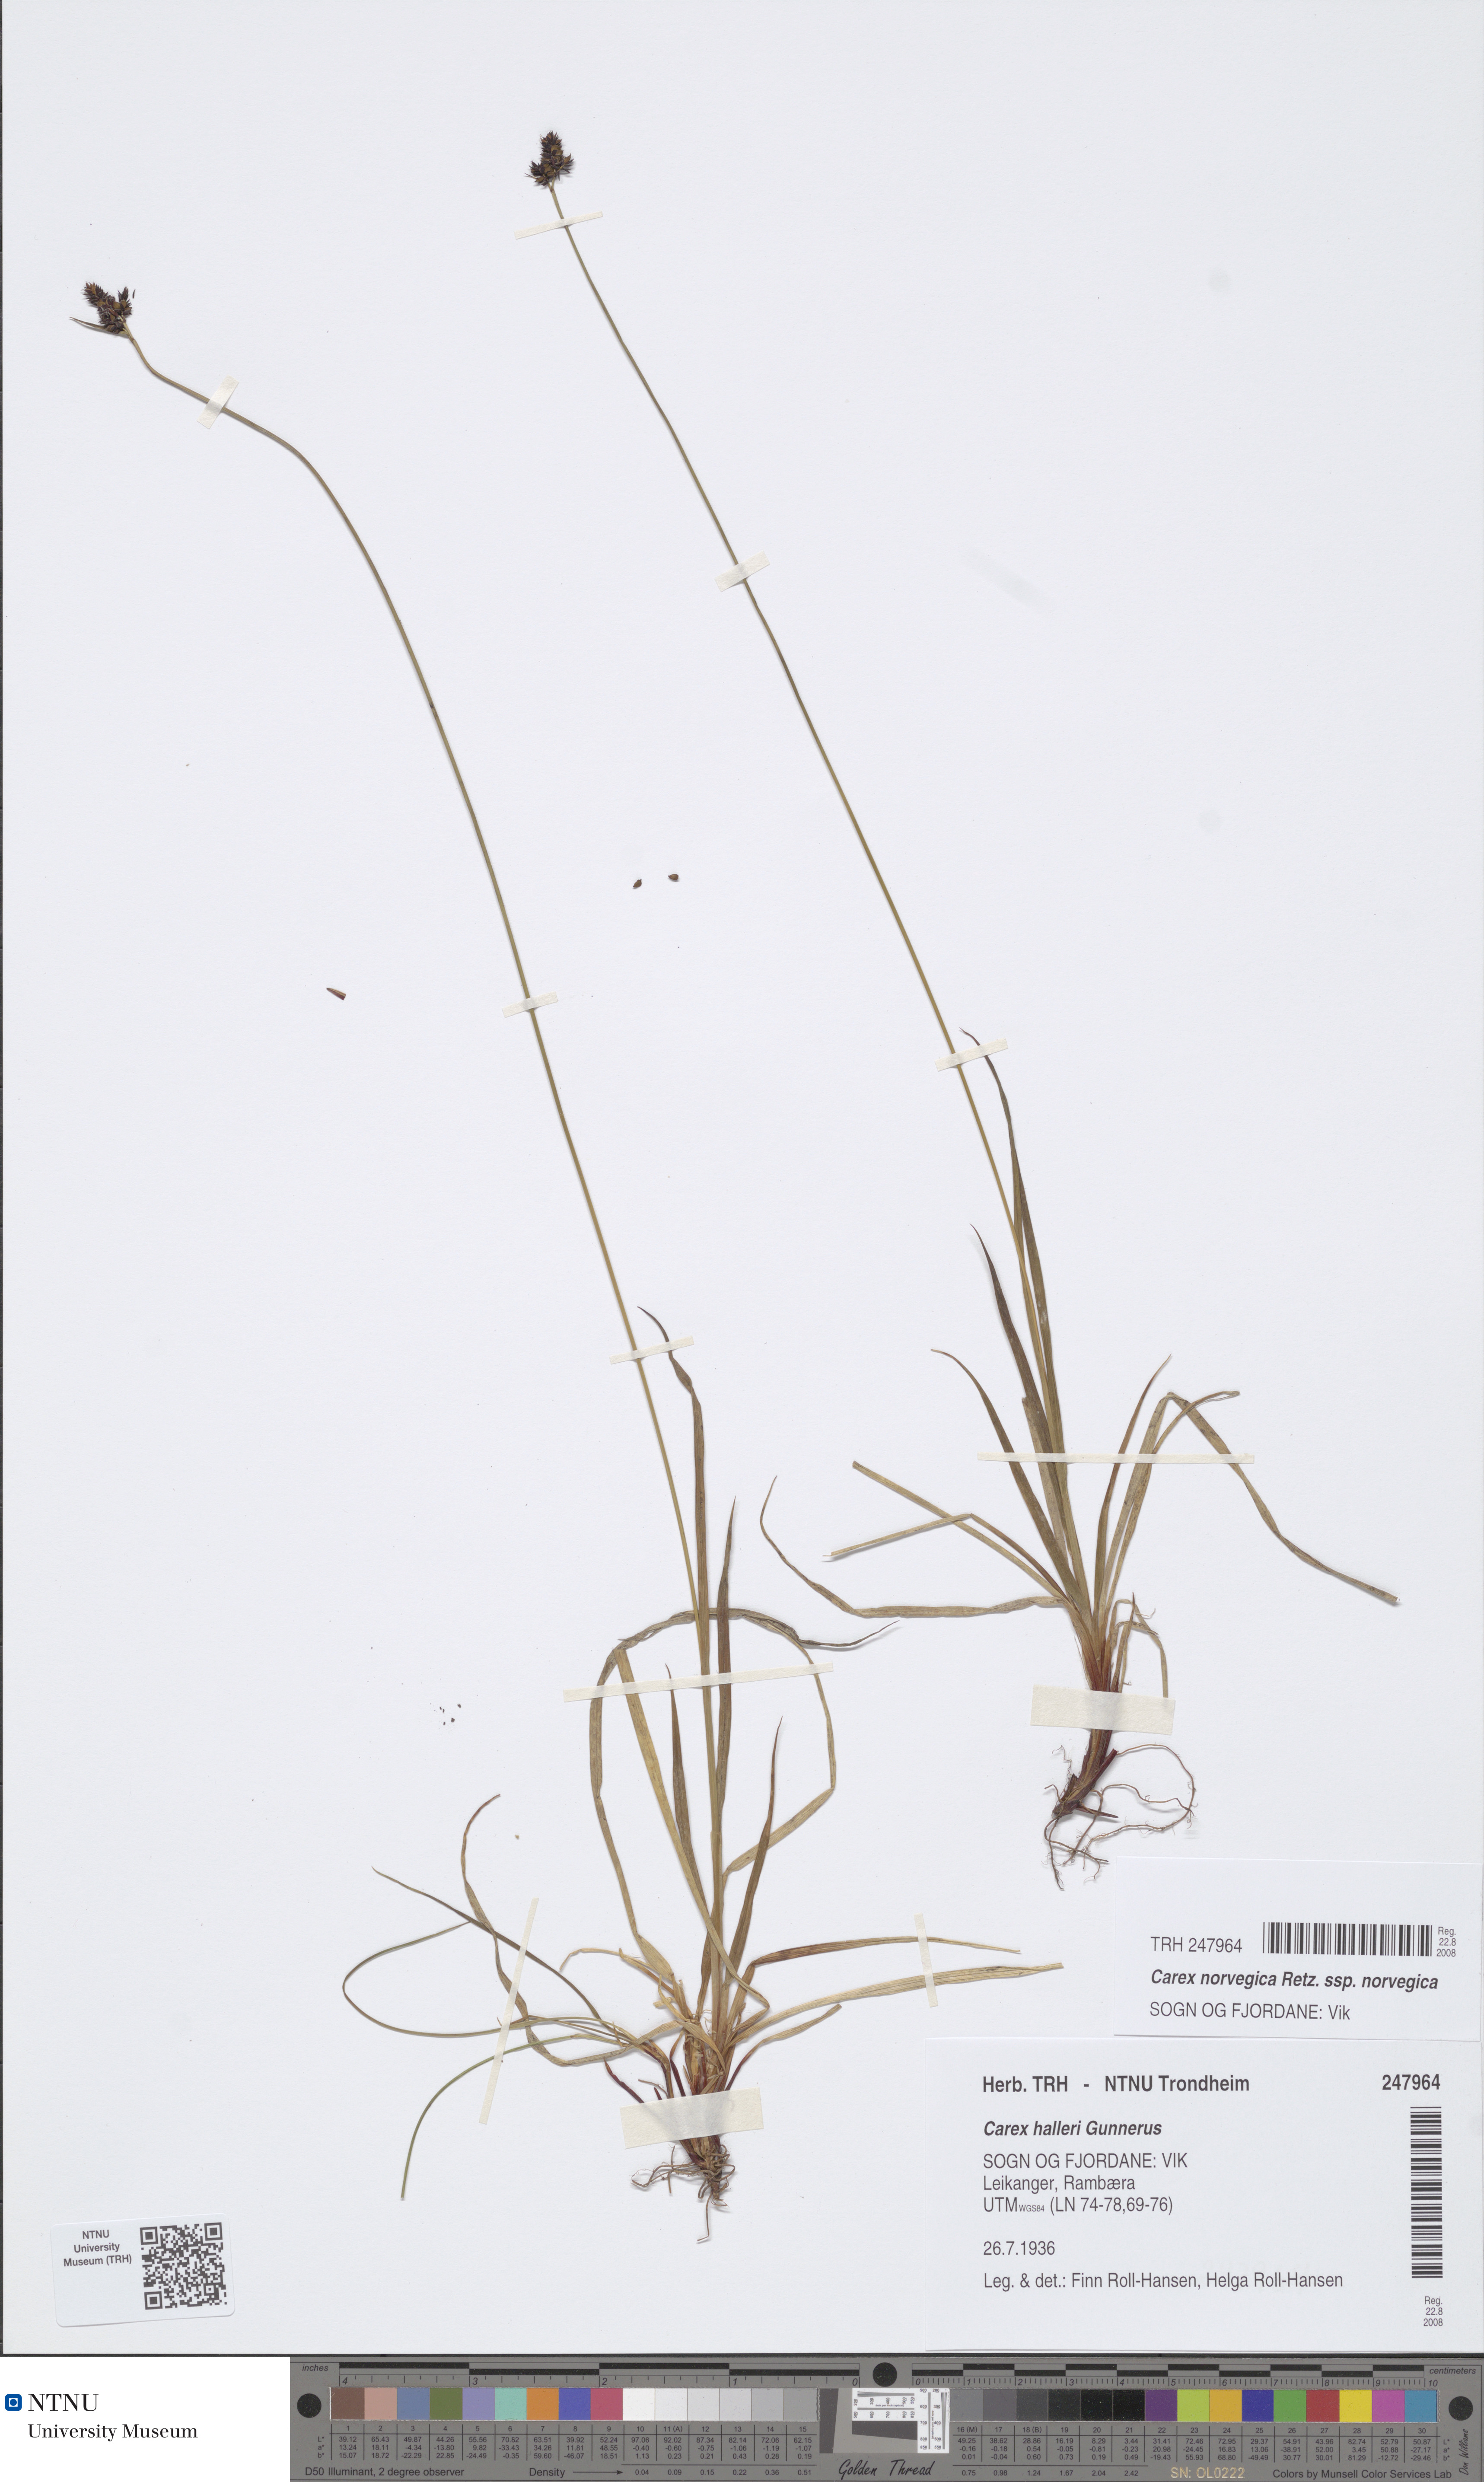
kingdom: Plantae
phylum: Tracheophyta
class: Liliopsida
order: Poales
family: Cyperaceae
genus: Carex
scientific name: Carex norvegica
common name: Close-headed alpine-sedge
